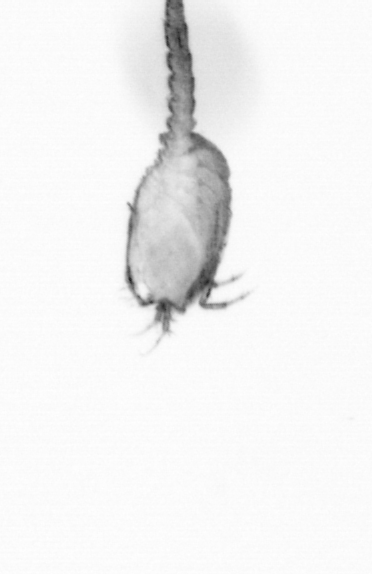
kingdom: Animalia
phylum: Annelida
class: Polychaeta
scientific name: Polychaeta
